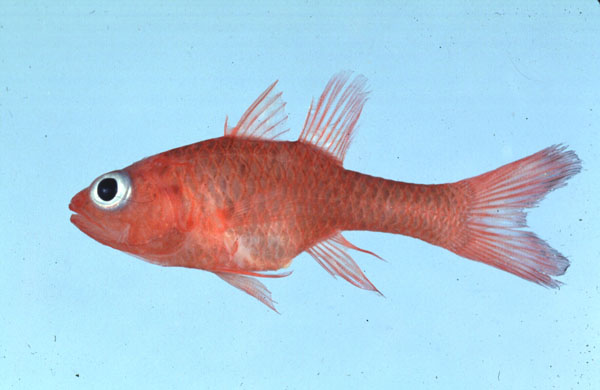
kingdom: Animalia
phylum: Chordata
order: Perciformes
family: Apogonidae
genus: Apogon
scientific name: Apogon talboti
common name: Flame cardinalfish
